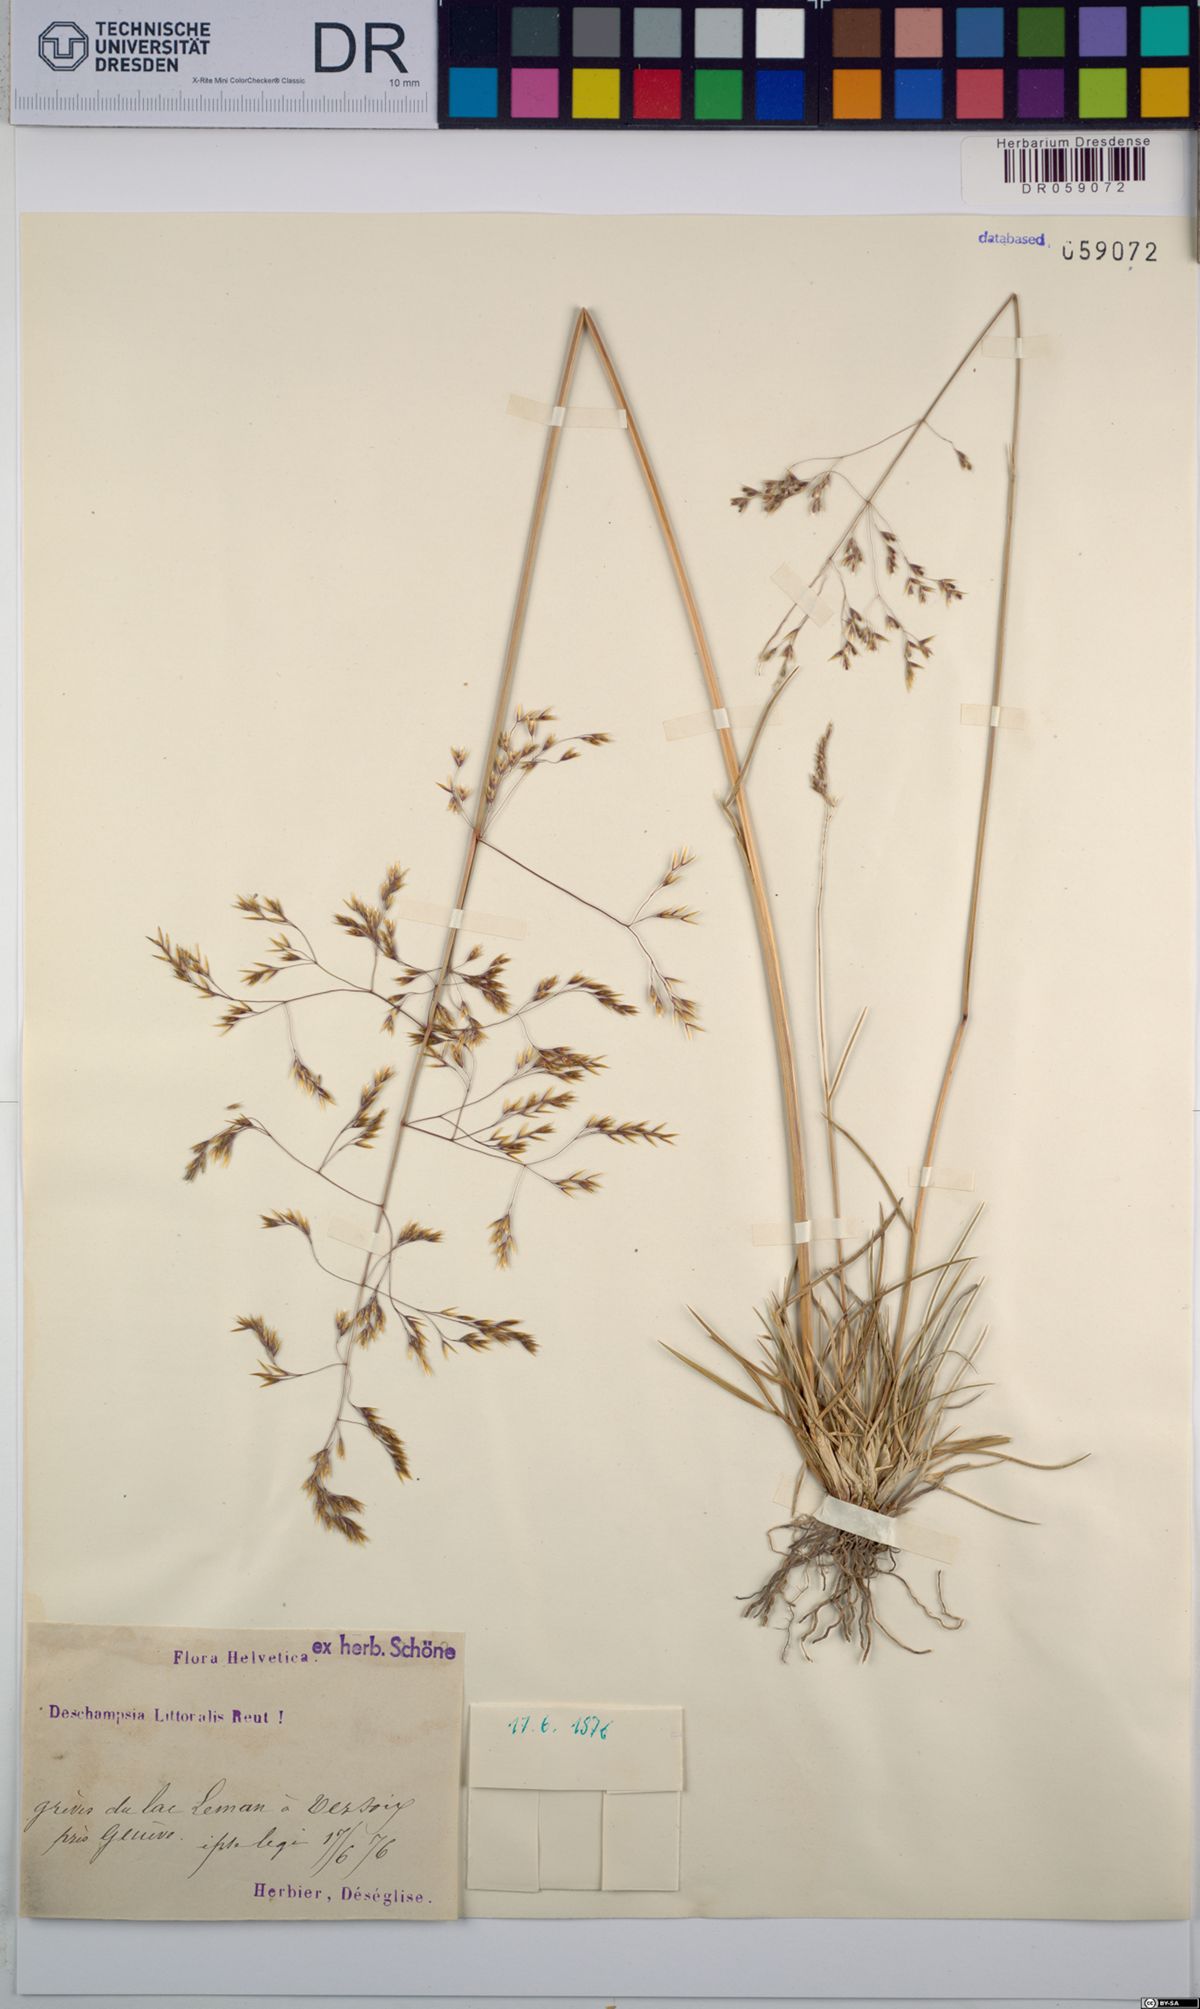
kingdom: Plantae
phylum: Tracheophyta
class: Liliopsida
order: Poales
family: Poaceae
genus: Deschampsia
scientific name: Deschampsia cespitosa
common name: Tufted hair-grass
